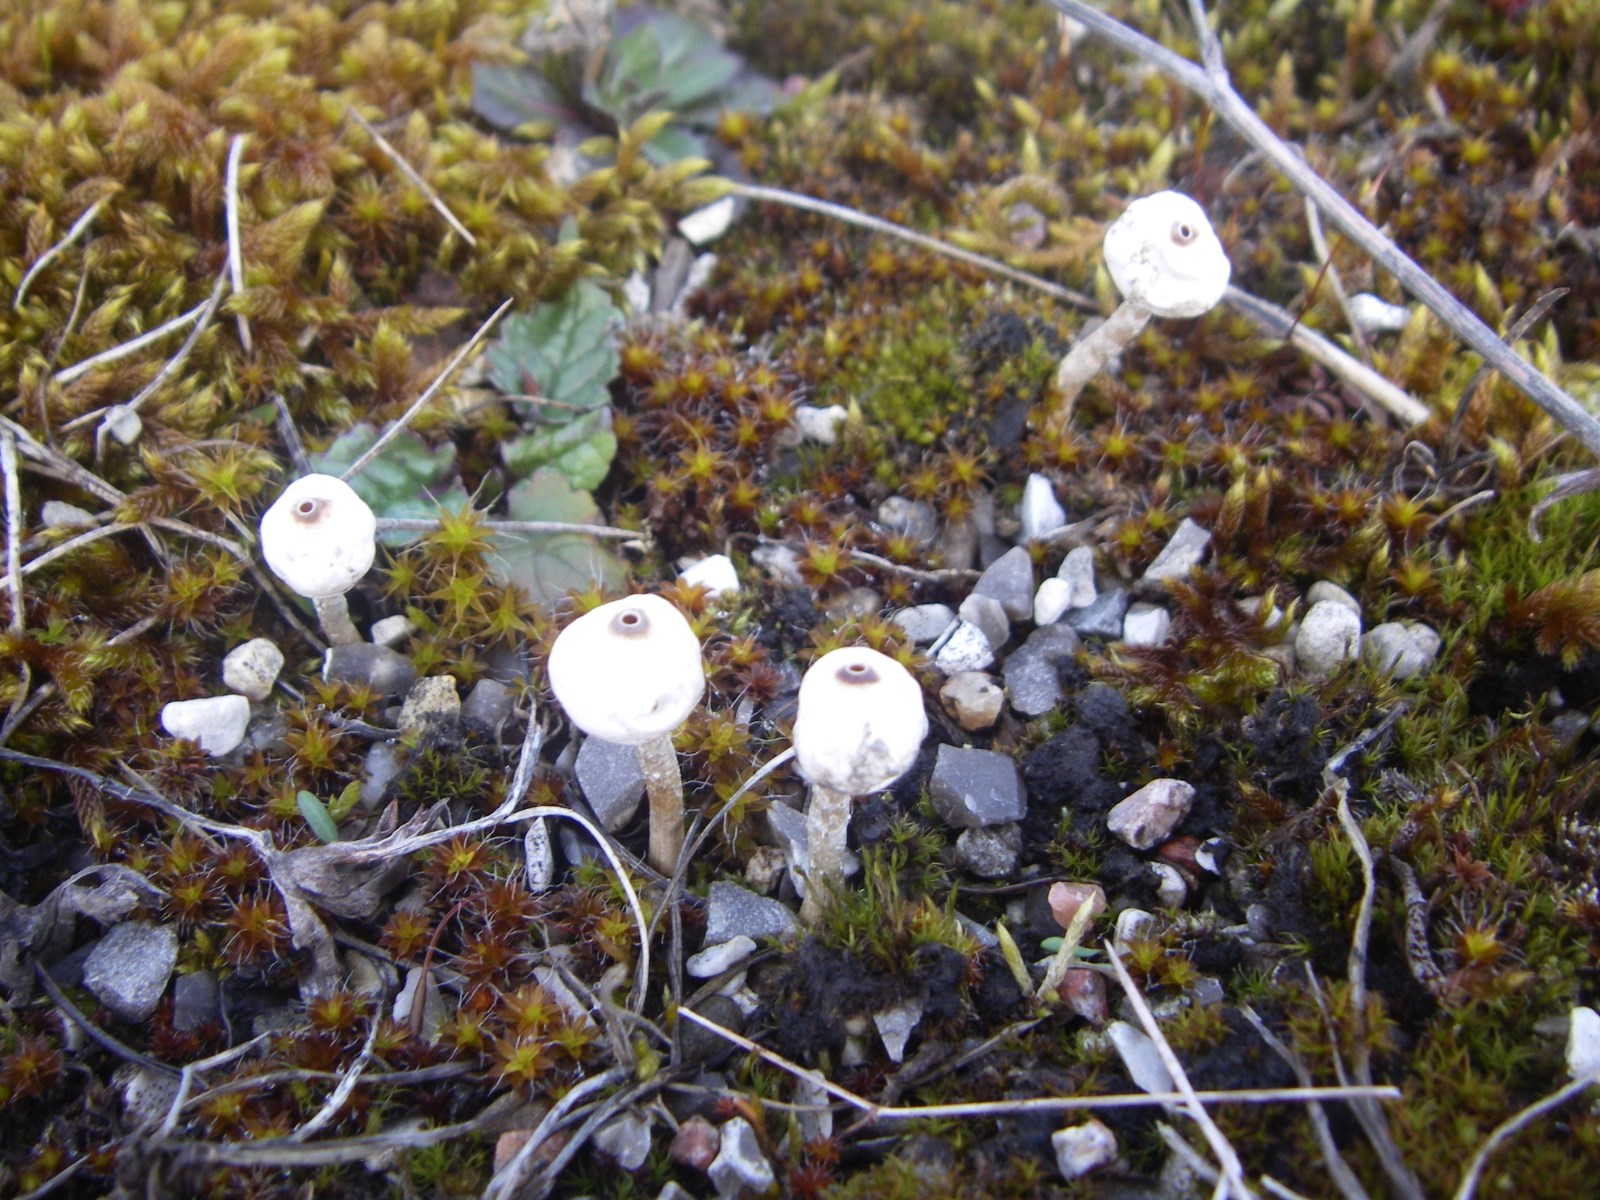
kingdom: Fungi
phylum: Basidiomycota
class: Agaricomycetes
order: Agaricales
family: Agaricaceae
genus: Tulostoma
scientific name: Tulostoma brumale
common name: vinter-stilkbovist
